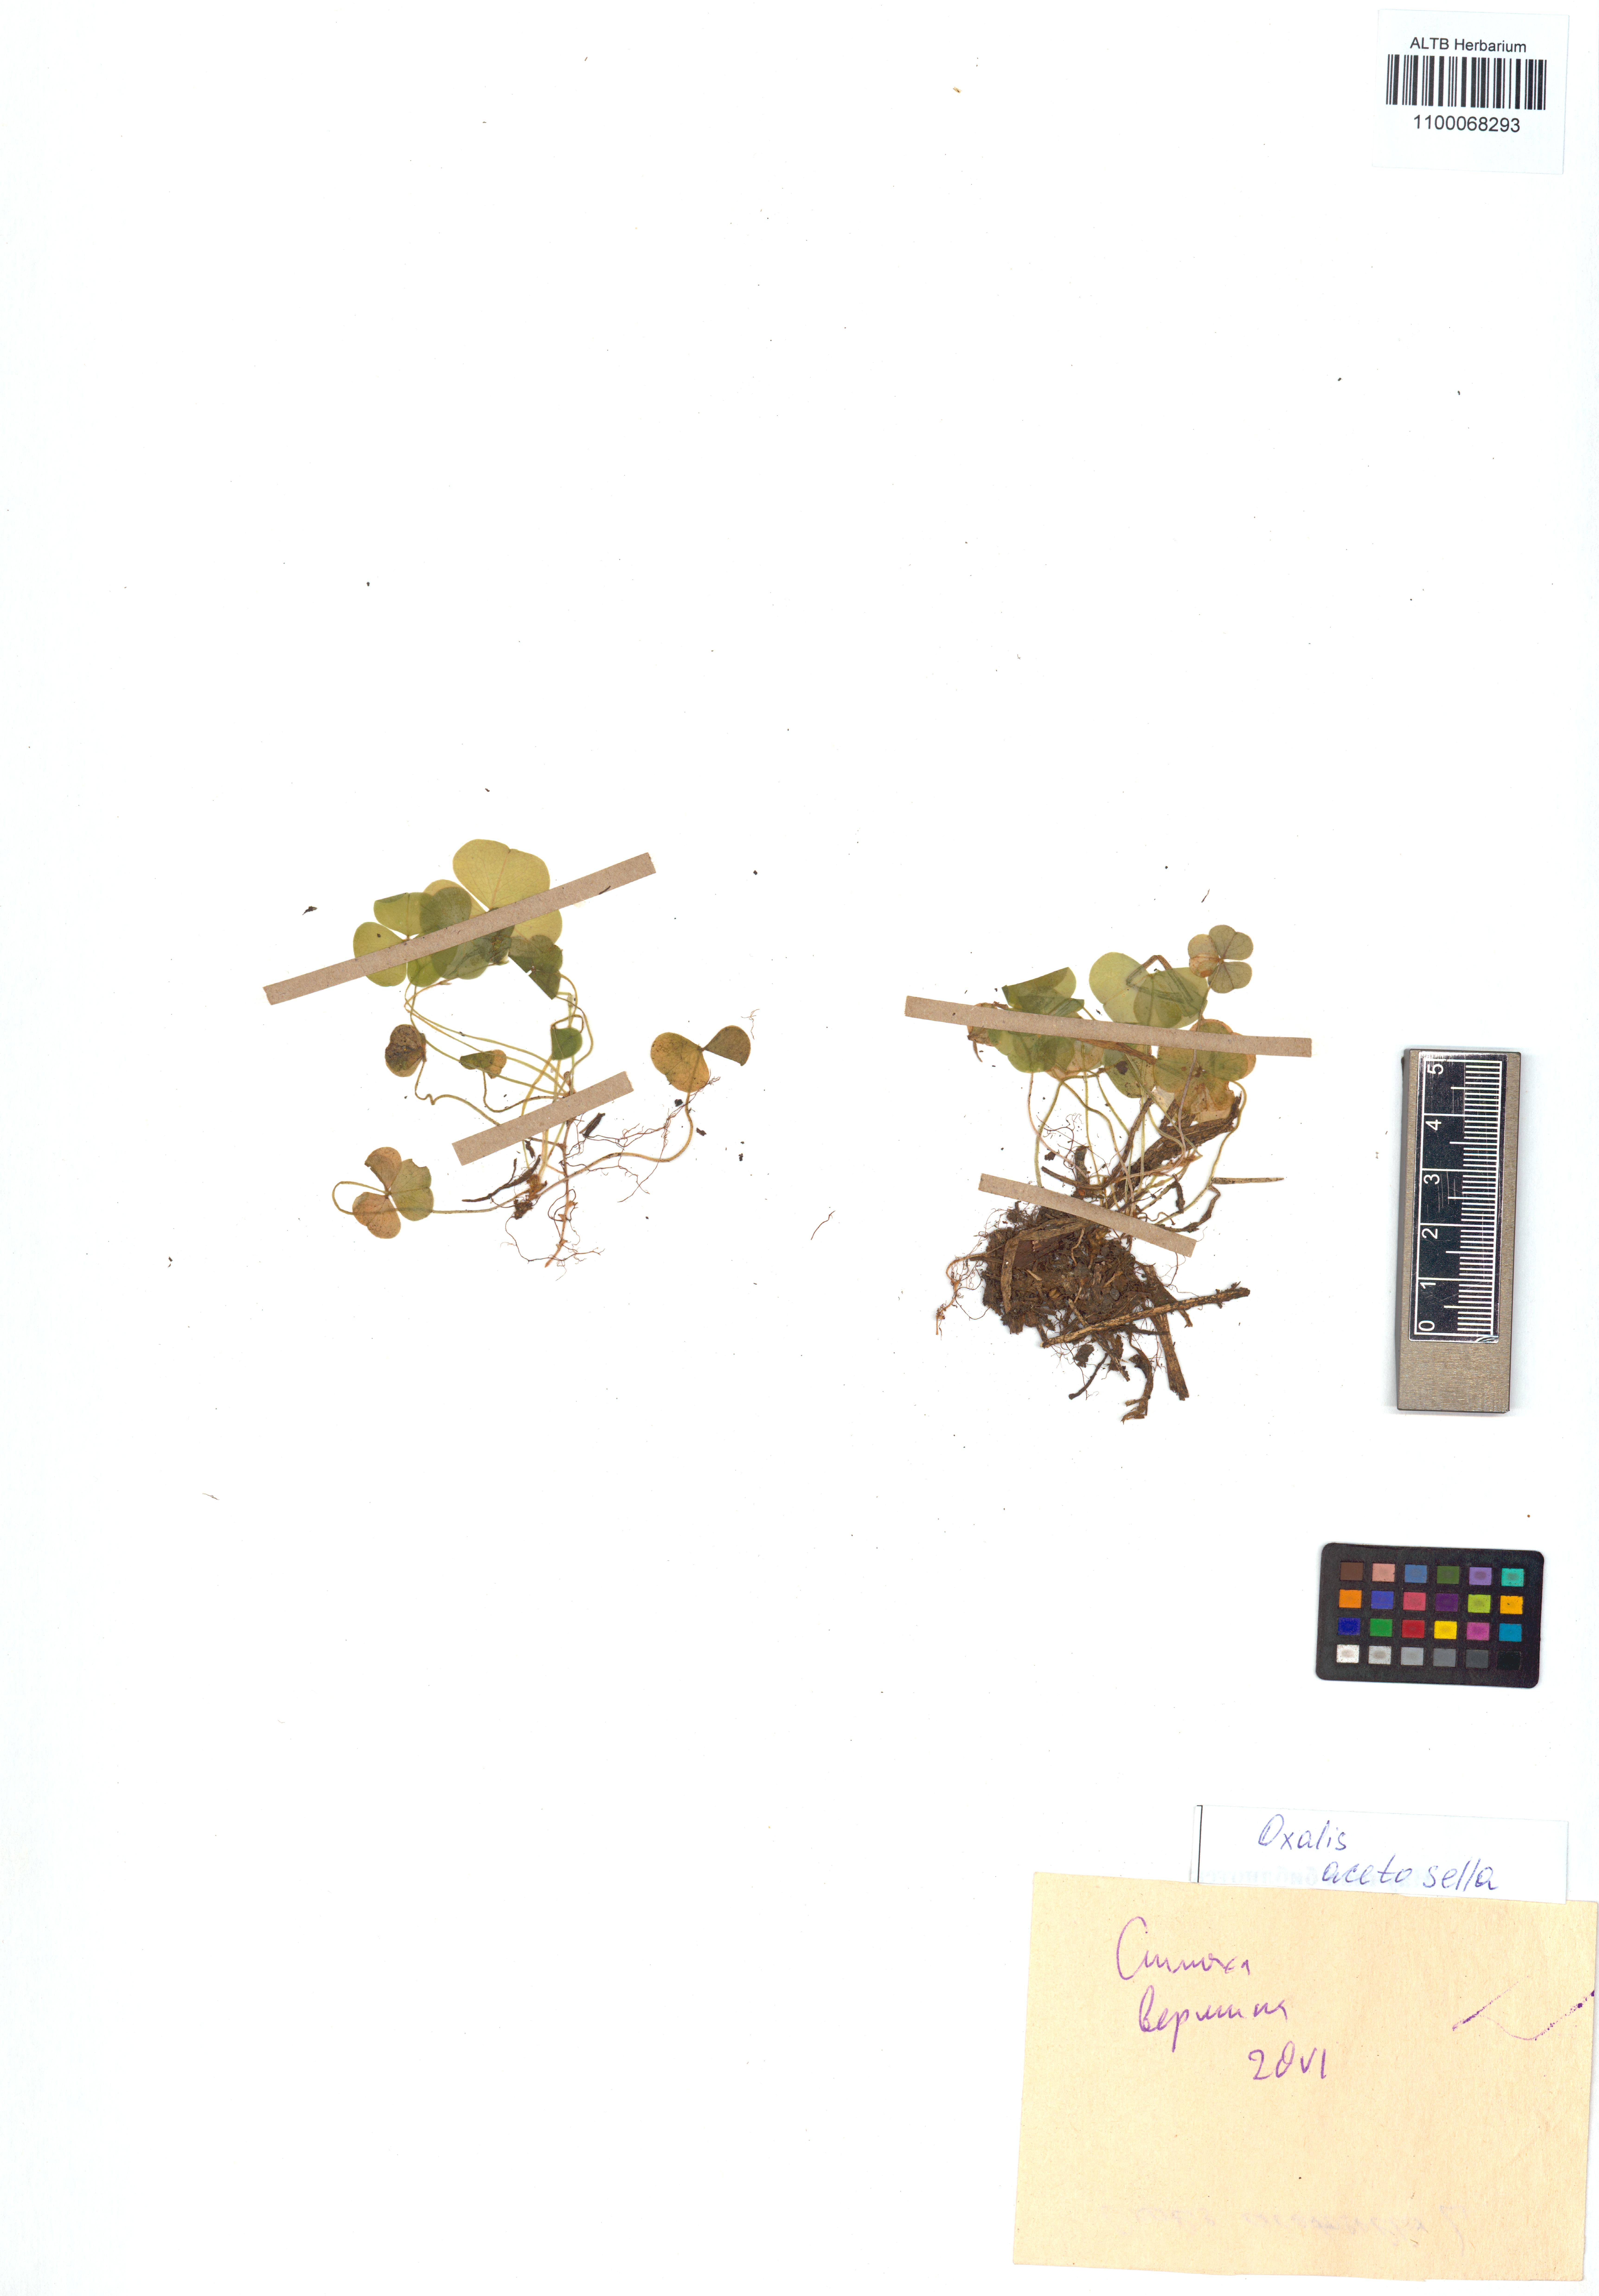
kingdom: Plantae
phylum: Tracheophyta
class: Magnoliopsida
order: Oxalidales
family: Oxalidaceae
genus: Oxalis
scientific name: Oxalis acetosella
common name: Wood-sorrel
